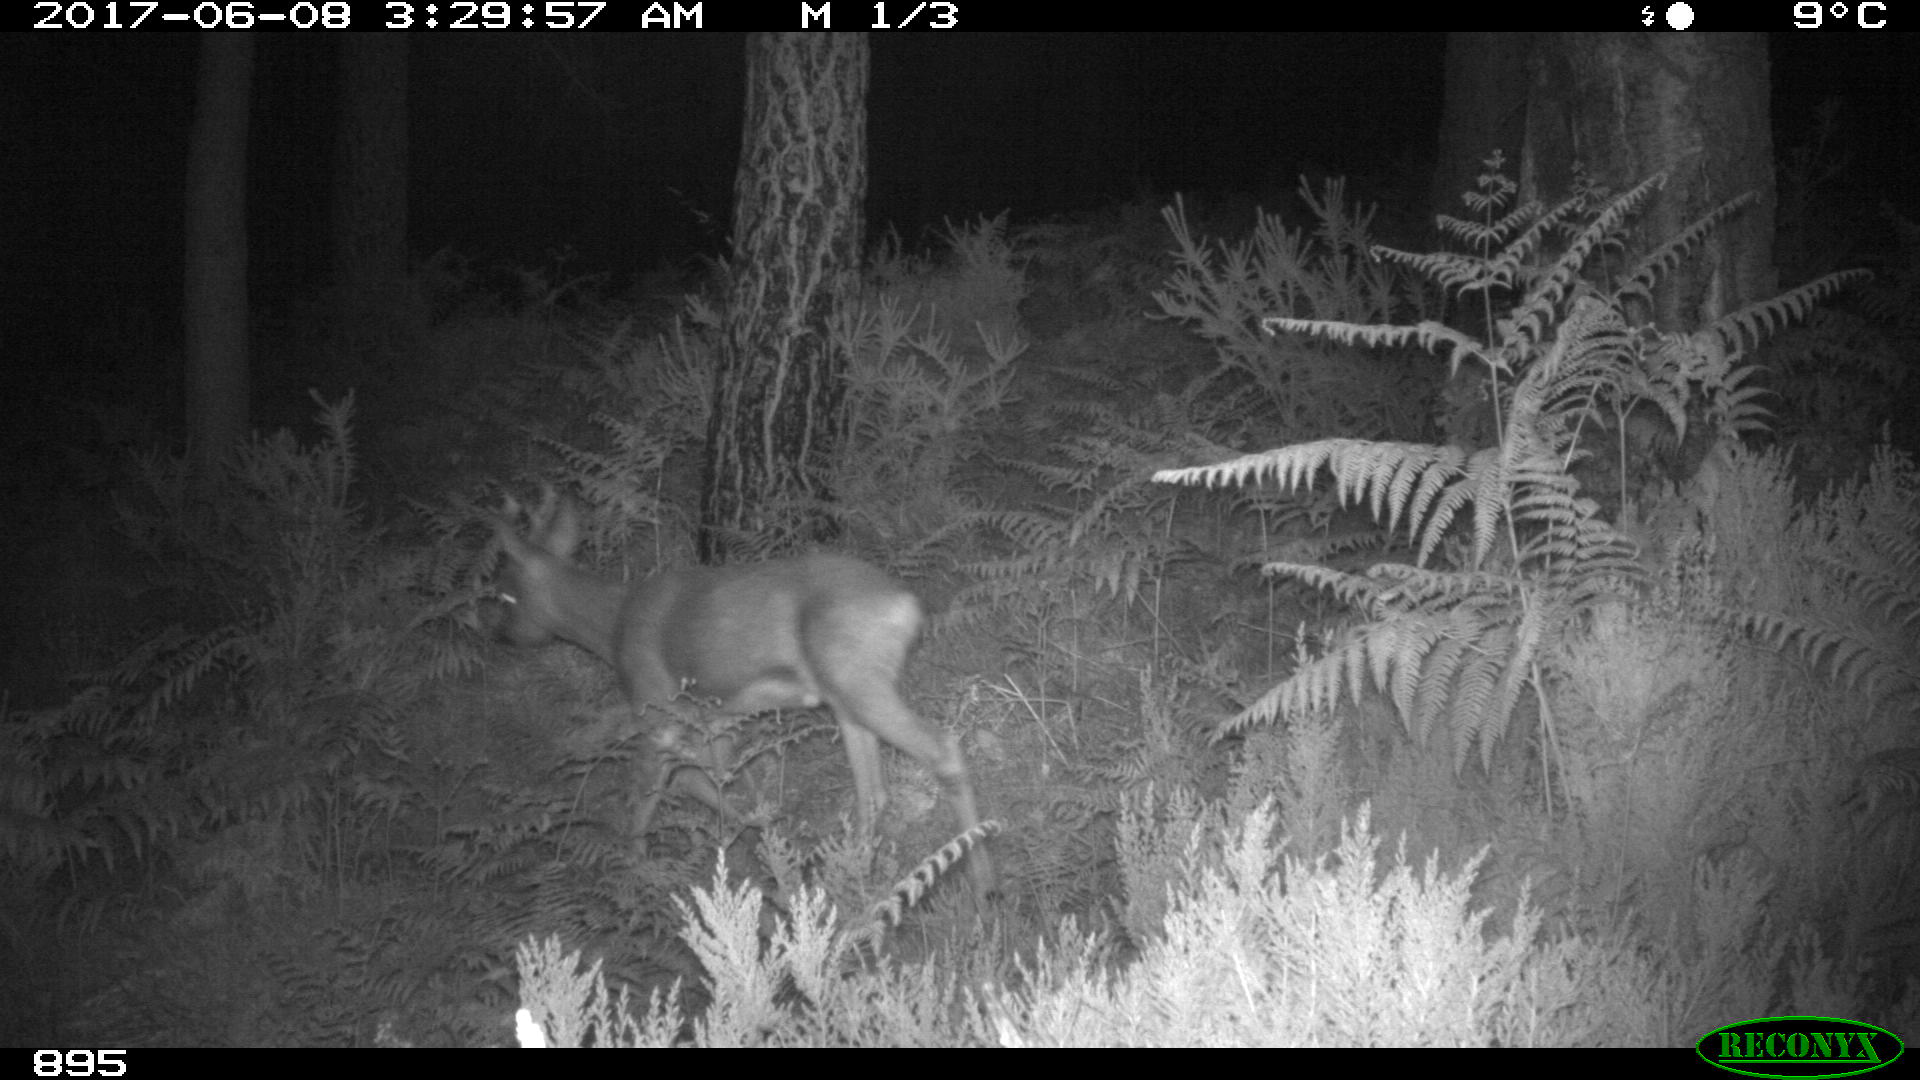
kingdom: Animalia
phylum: Chordata
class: Mammalia
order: Artiodactyla
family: Cervidae
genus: Capreolus
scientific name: Capreolus capreolus
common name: Western roe deer
